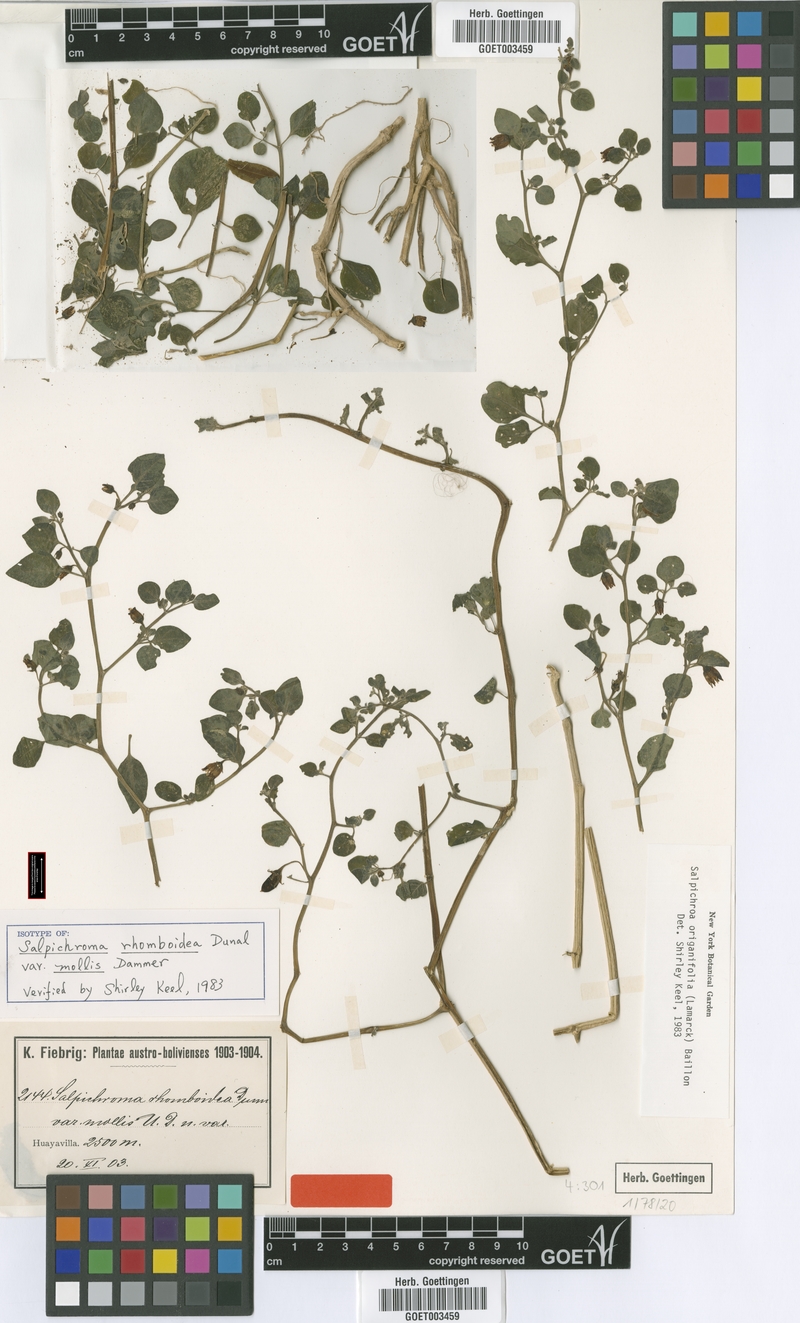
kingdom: Plantae
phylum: Tracheophyta
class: Magnoliopsida
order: Solanales
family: Solanaceae
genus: Salpichroa
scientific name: Salpichroa origanifolia
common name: Lily-of-the-valley-vine
